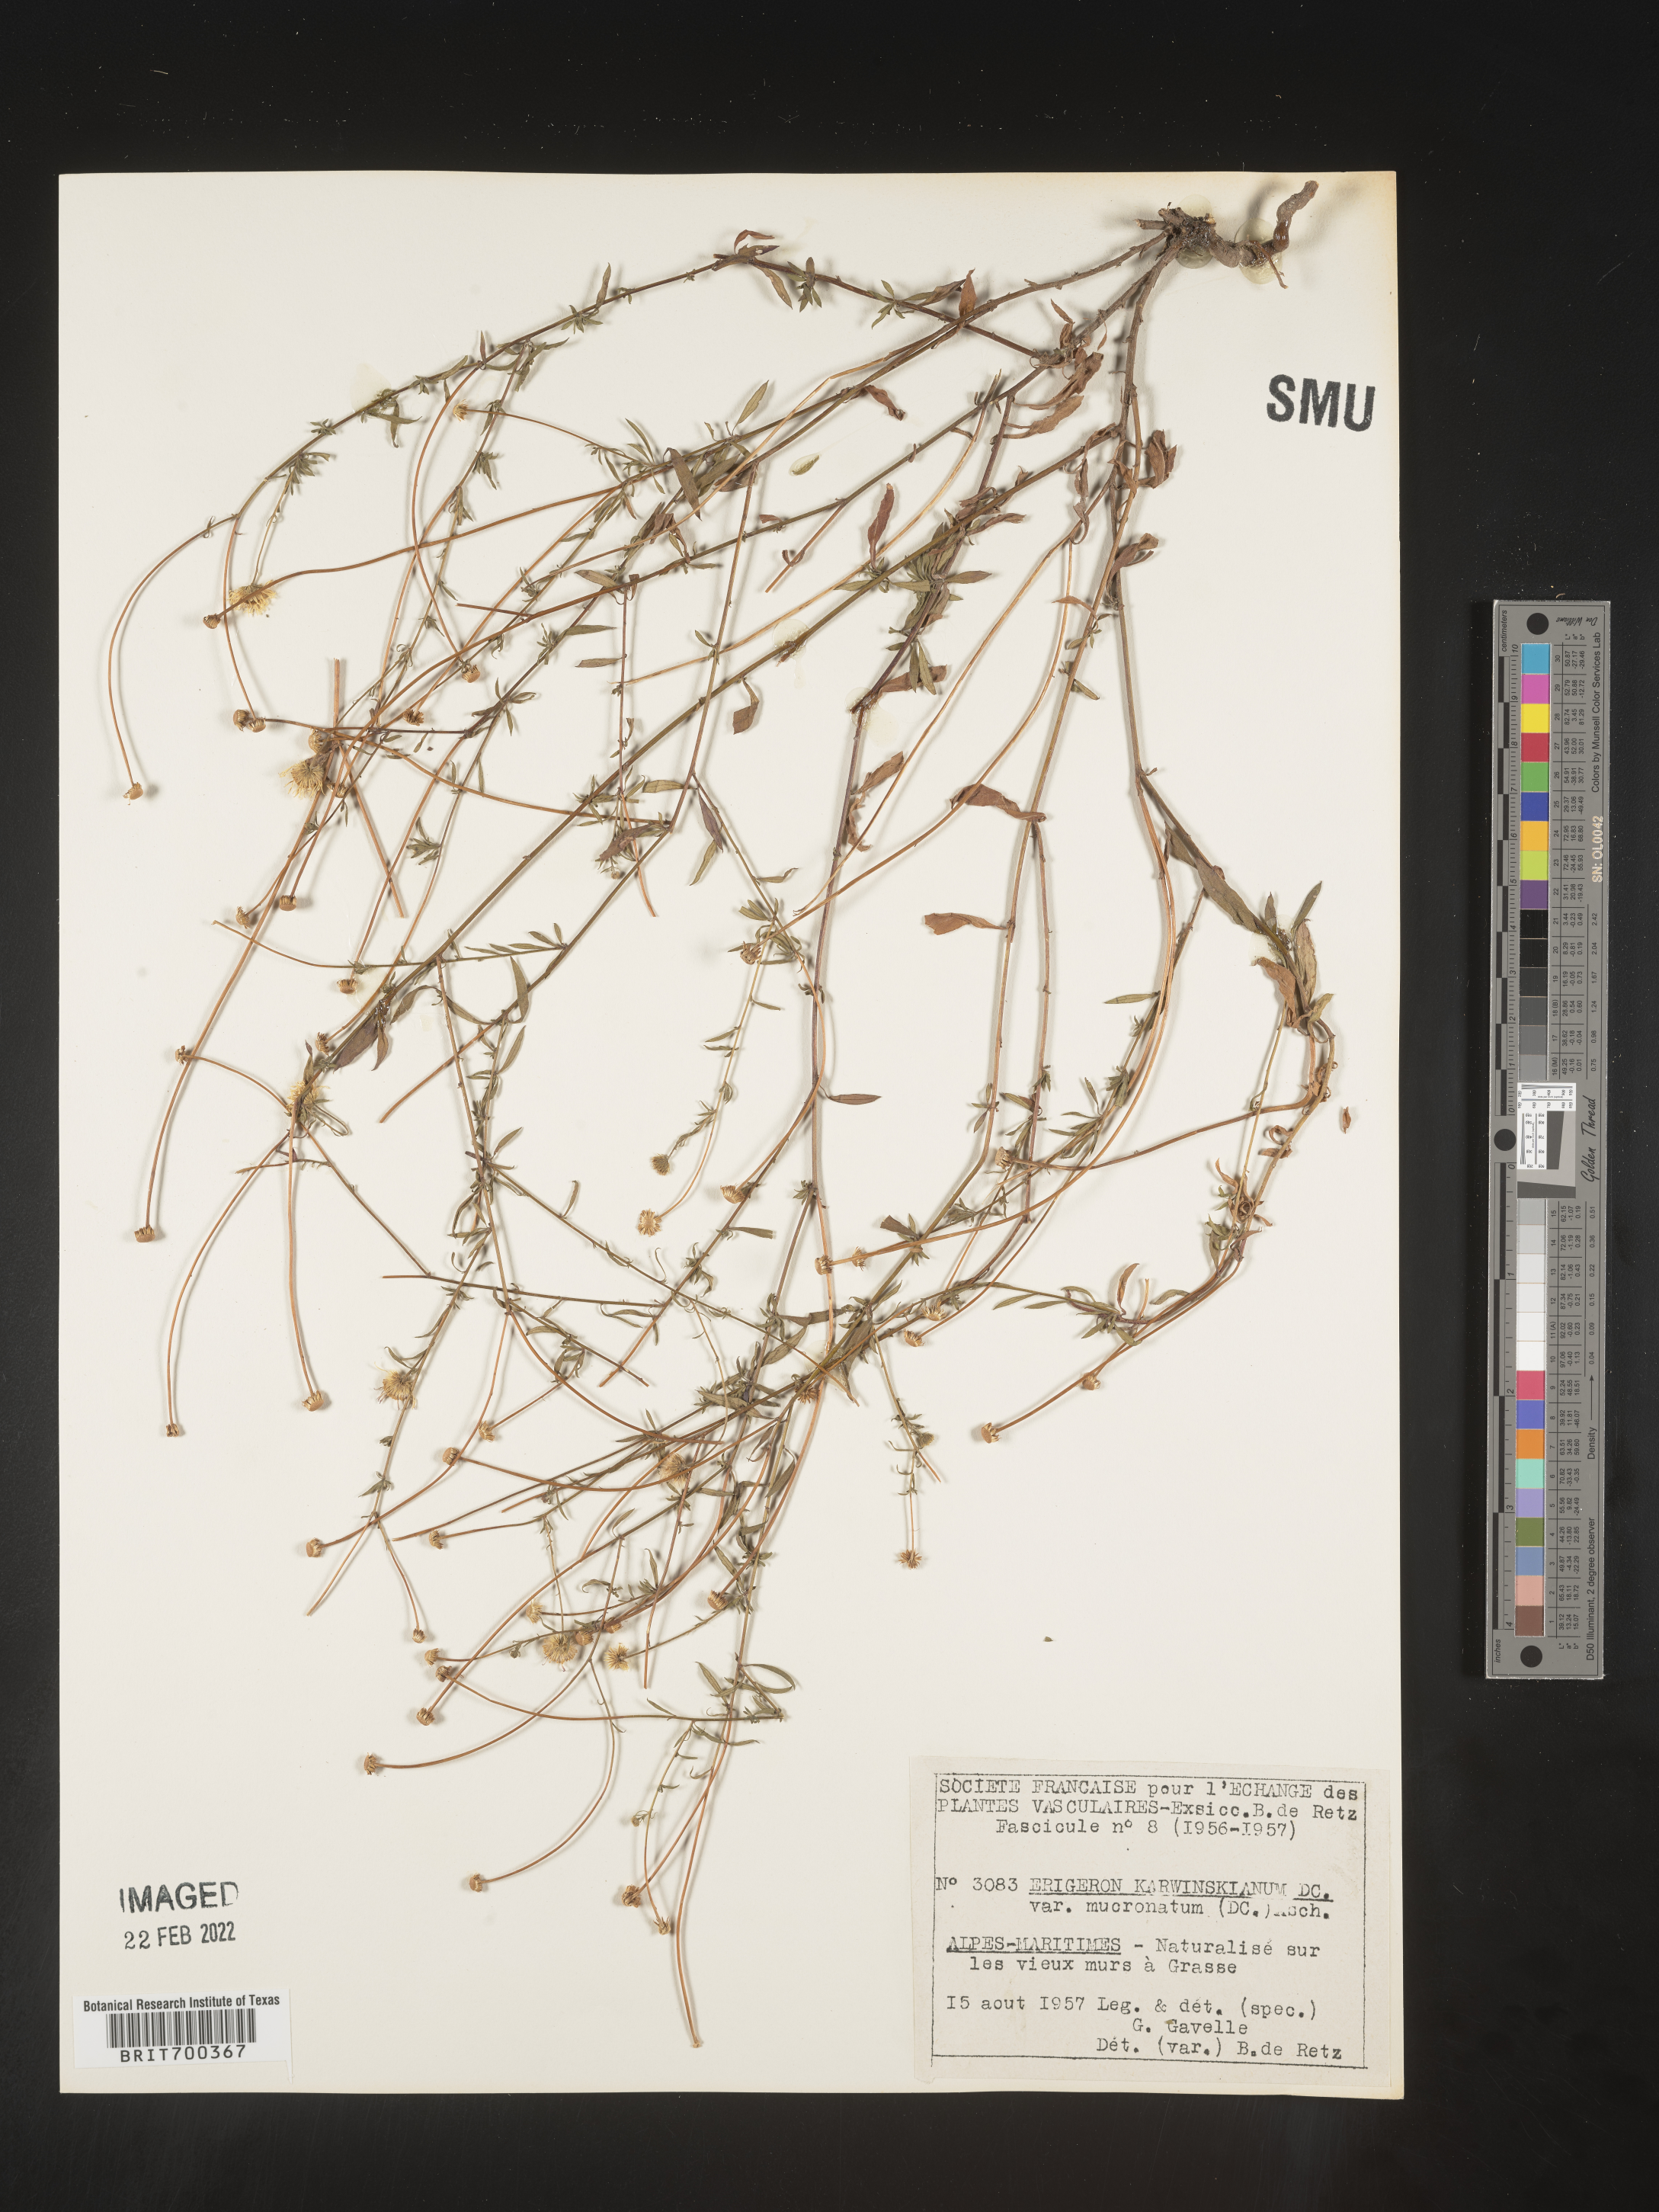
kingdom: Plantae
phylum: Tracheophyta
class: Magnoliopsida
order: Asterales
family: Asteraceae
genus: Erigeron
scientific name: Erigeron
